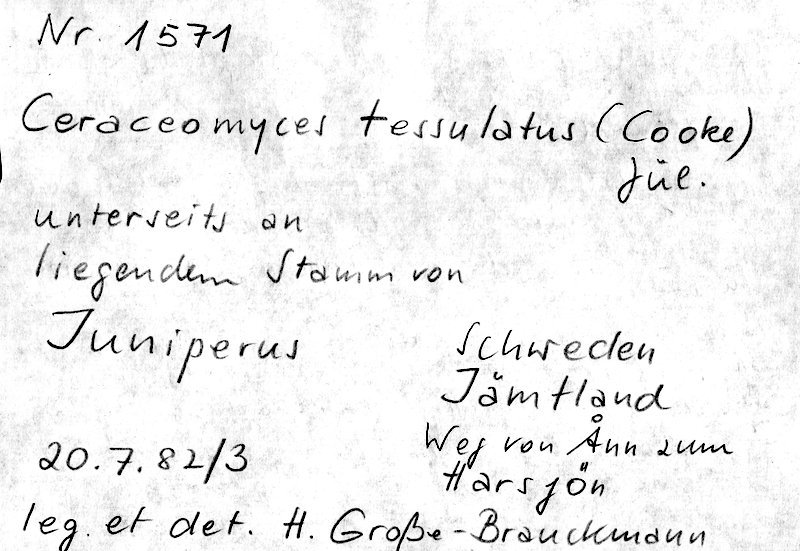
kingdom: Plantae
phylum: Tracheophyta
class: Pinopsida
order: Pinales
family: Cupressaceae
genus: Juniperus
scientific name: Juniperus
